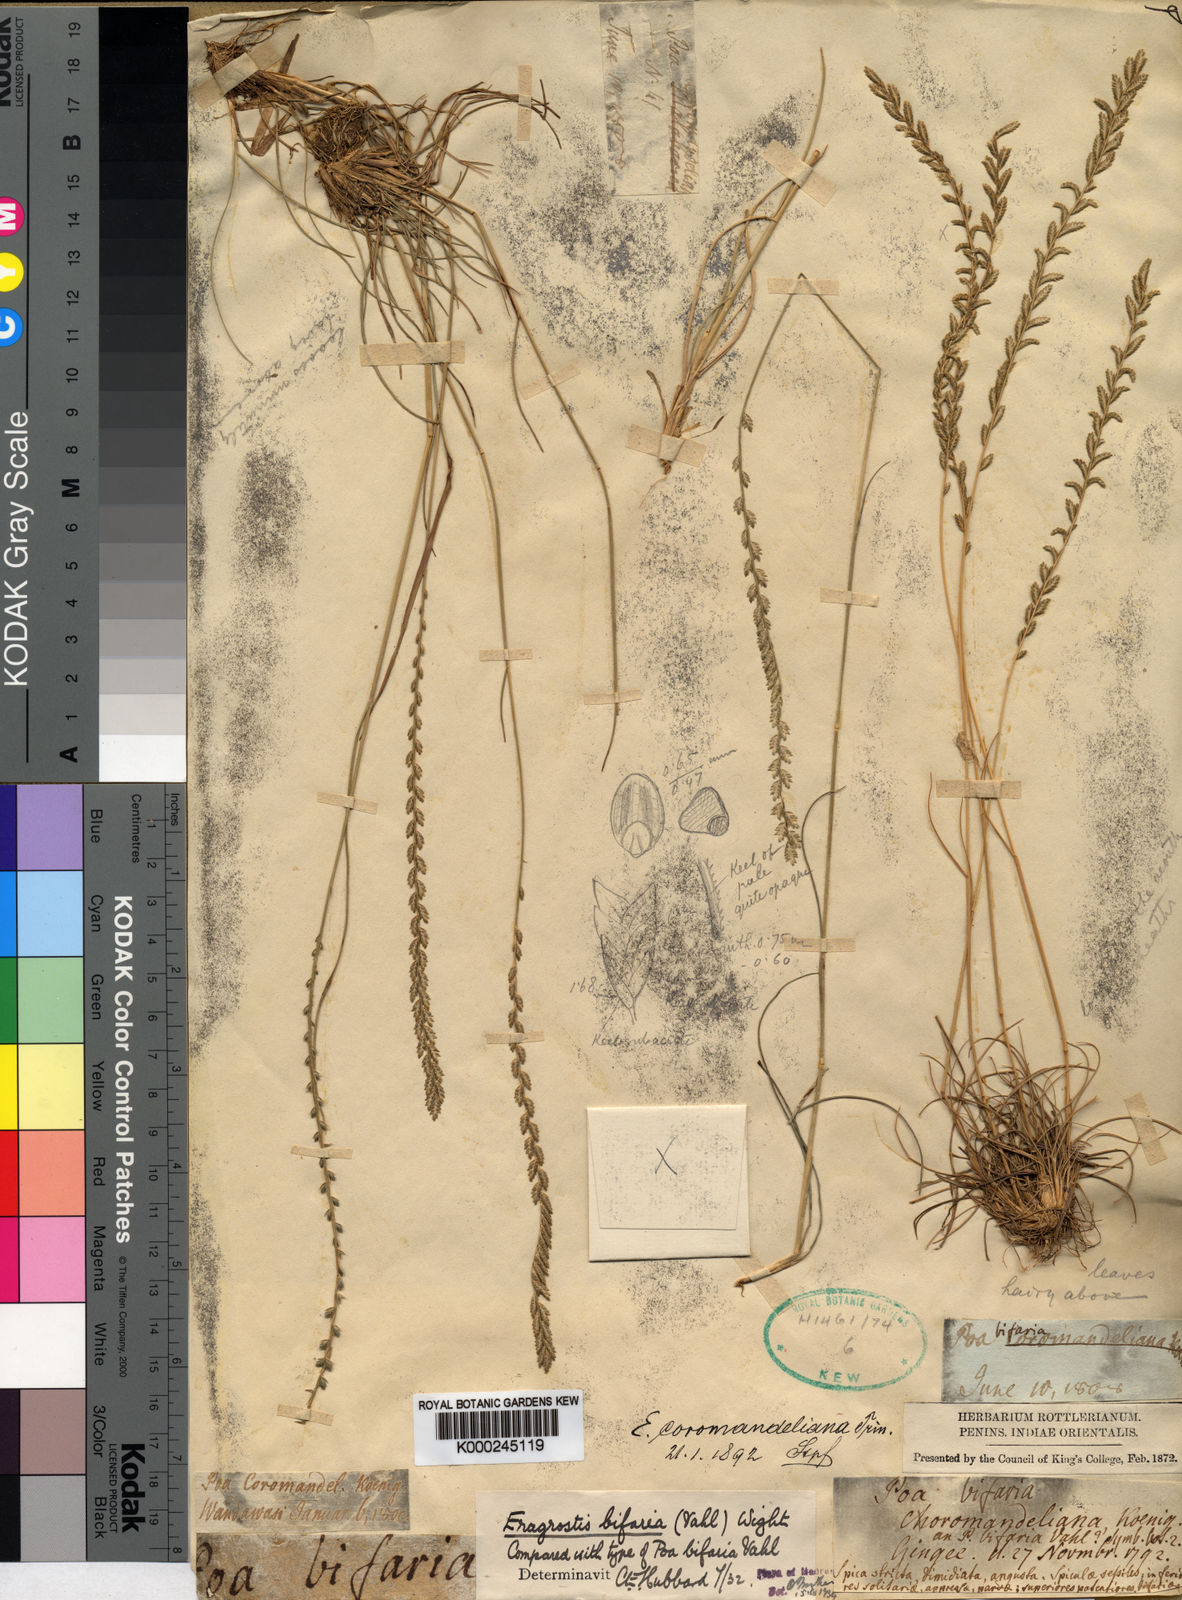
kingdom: Plantae
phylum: Tracheophyta
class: Liliopsida
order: Poales
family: Poaceae
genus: Eragrostiella
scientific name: Eragrostiella bifaria
